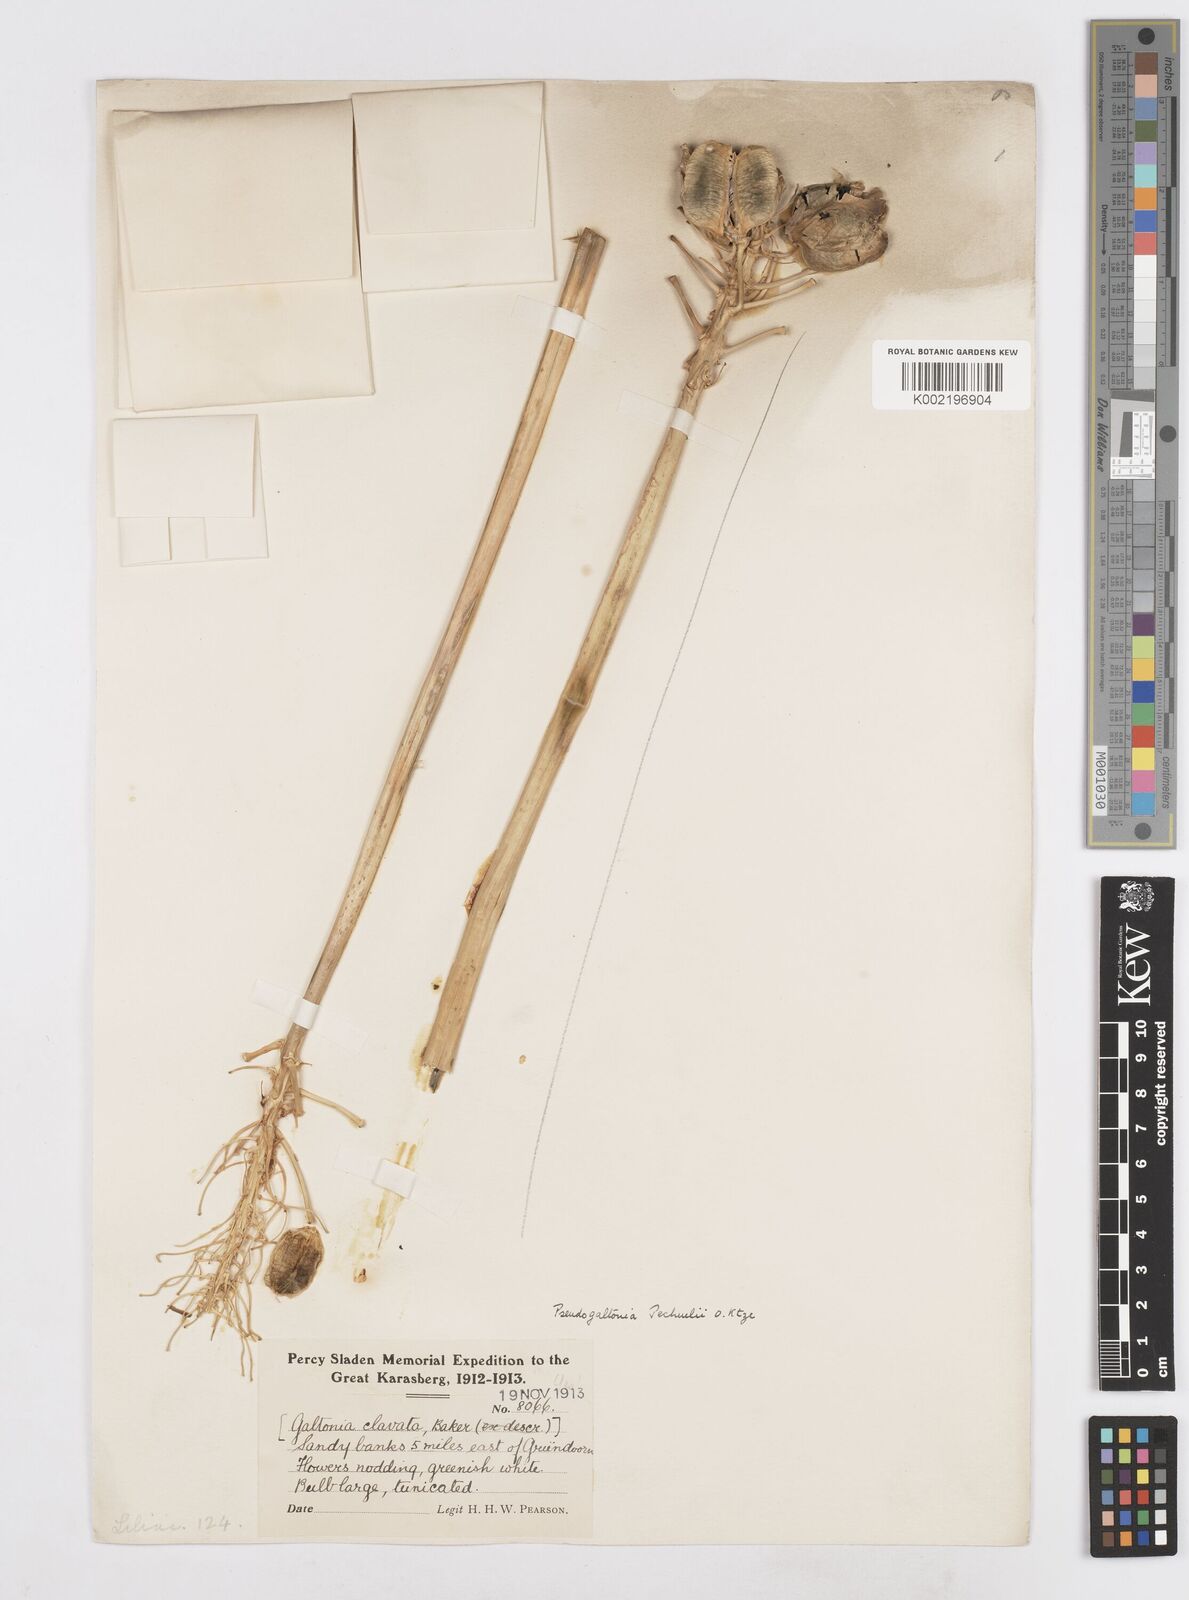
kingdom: Plantae
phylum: Tracheophyta
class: Liliopsida
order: Asparagales
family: Asparagaceae
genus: Pseudogaltonia
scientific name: Pseudogaltonia clavata
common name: South west african slangkop
